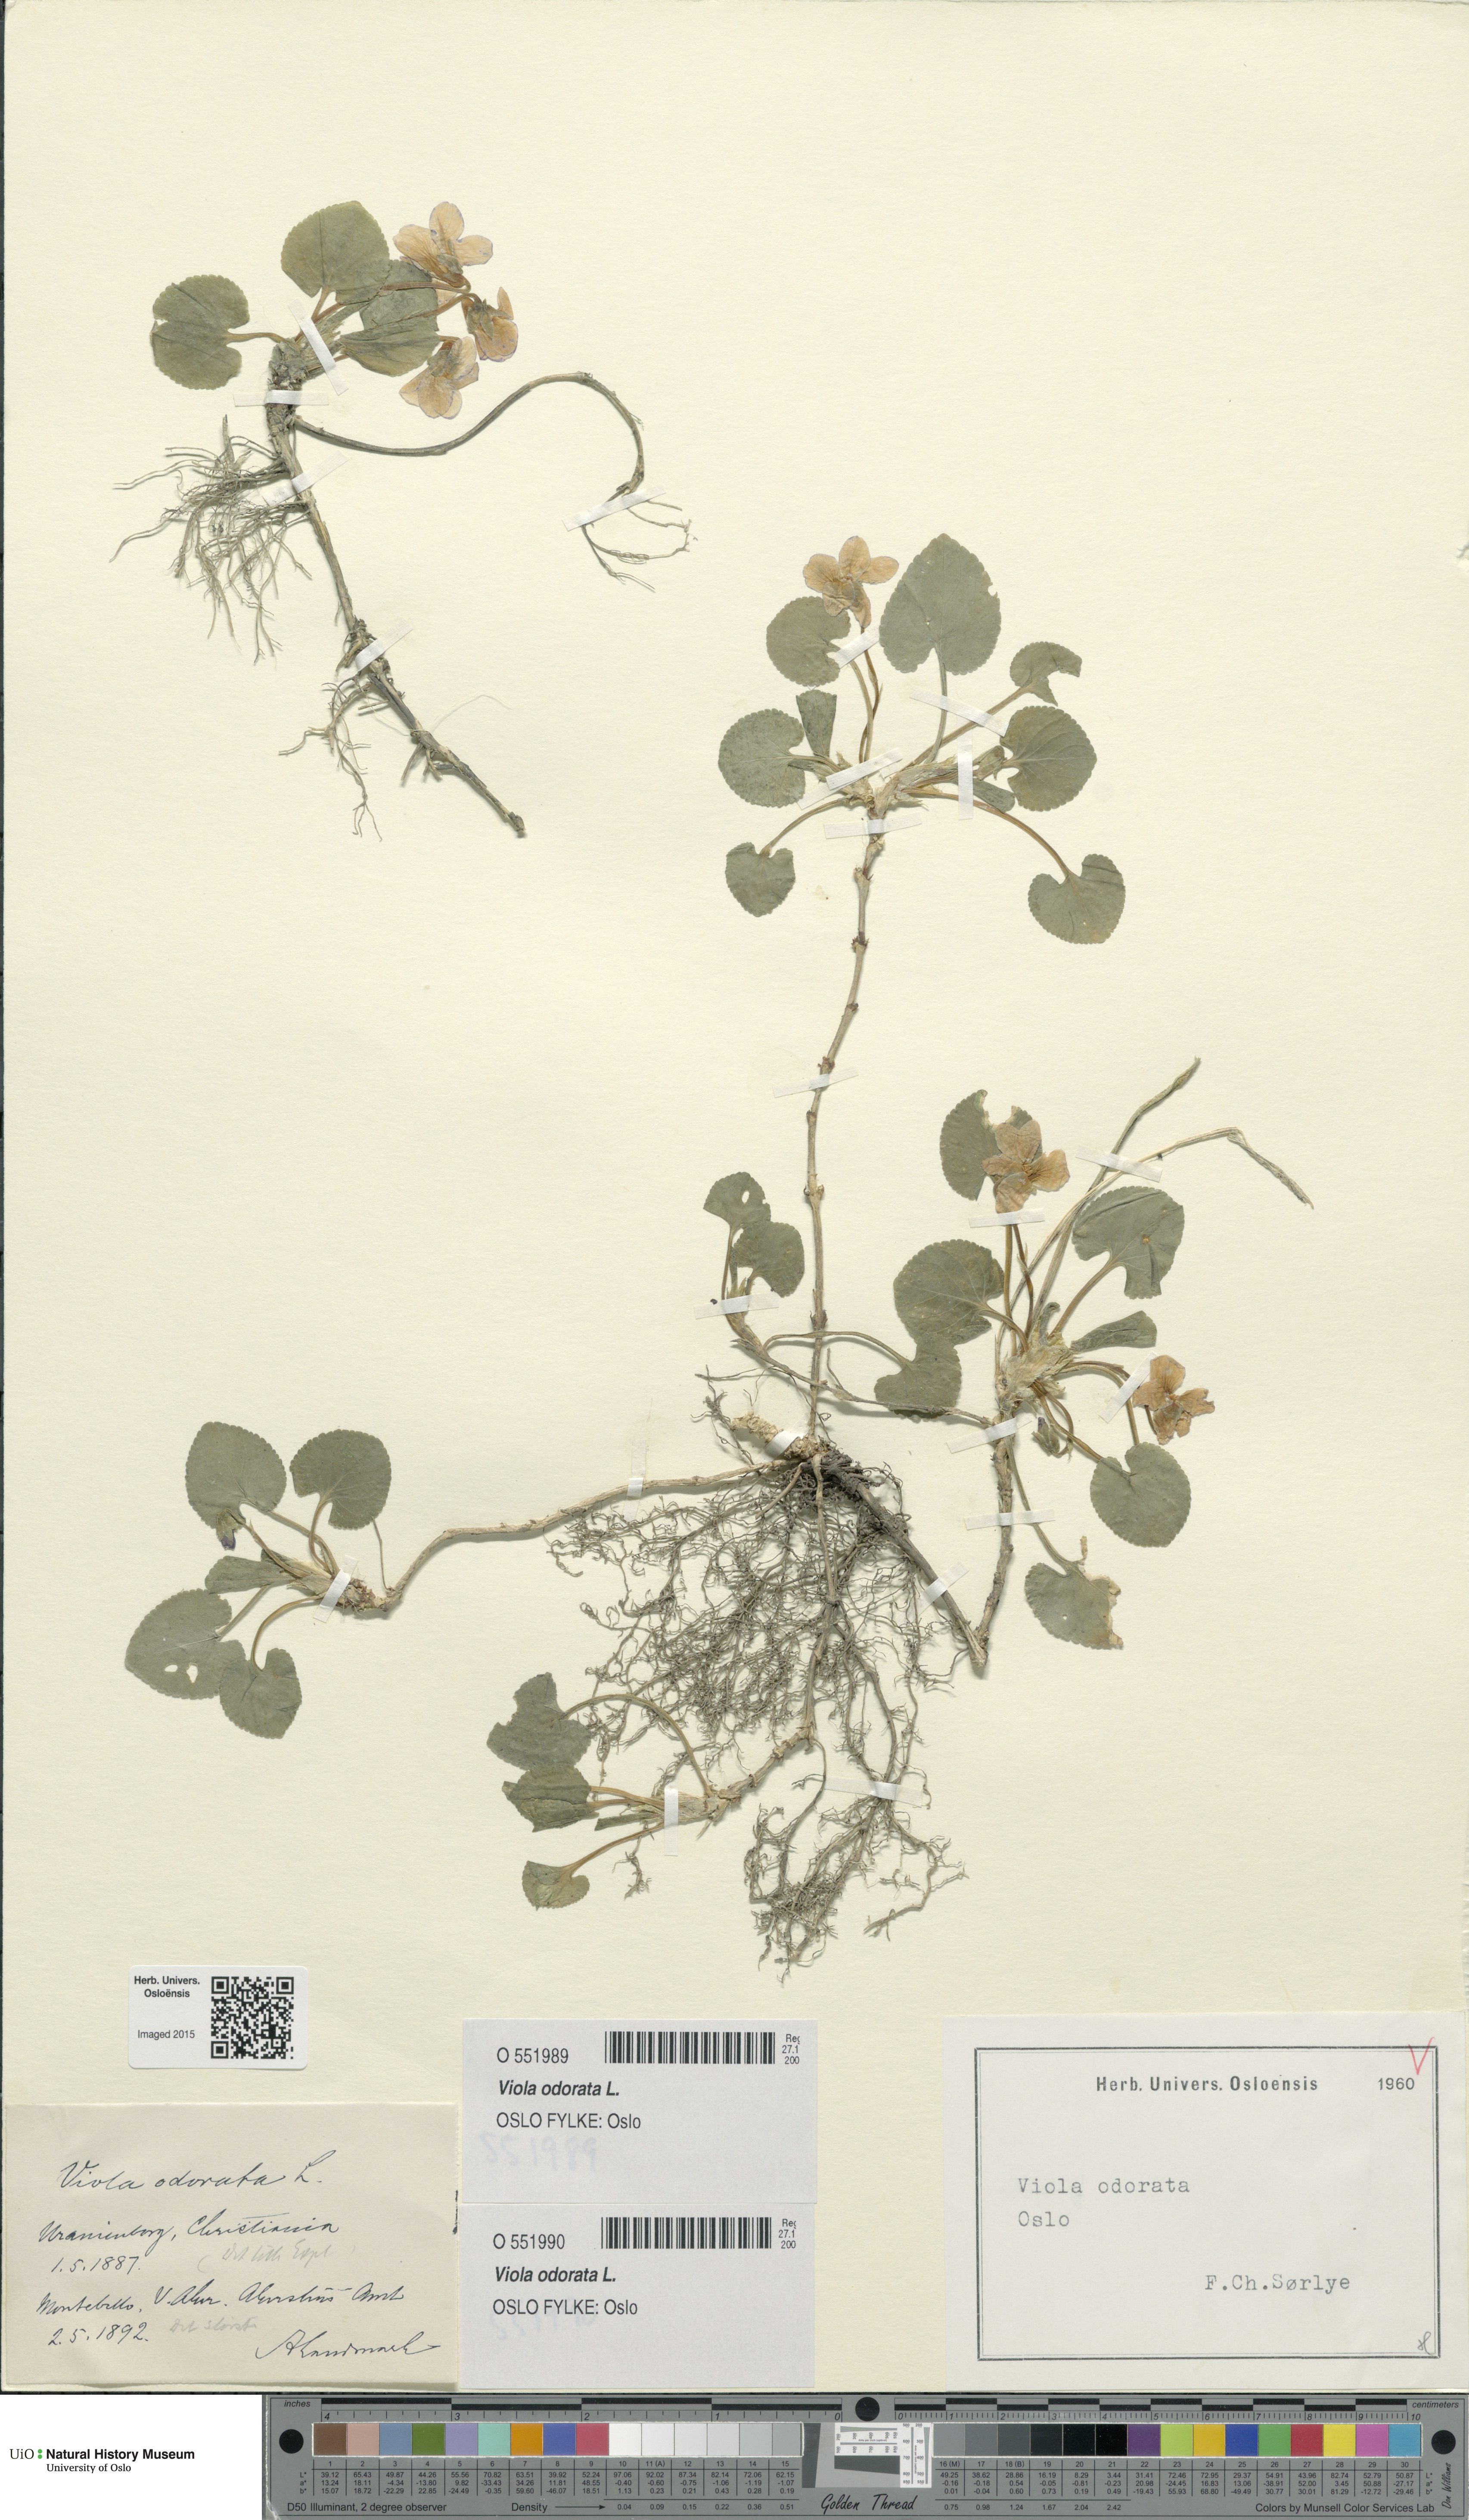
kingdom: Plantae
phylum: Tracheophyta
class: Magnoliopsida
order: Malpighiales
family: Violaceae
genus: Viola
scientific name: Viola odorata
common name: Sweet violet
